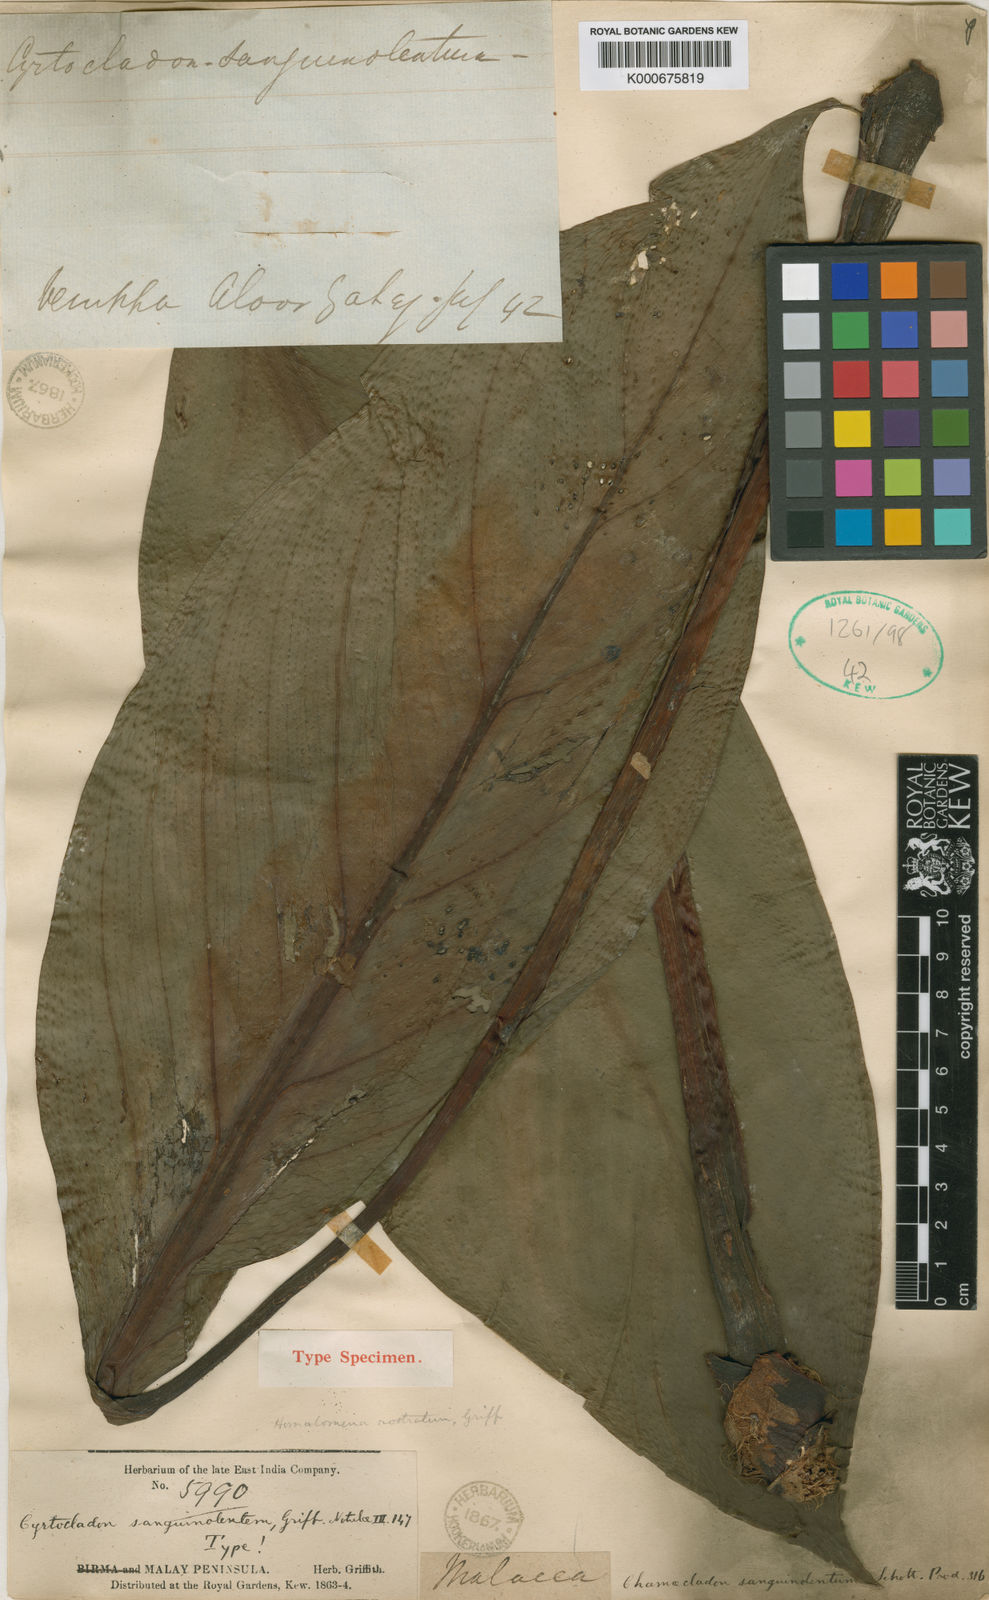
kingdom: Plantae
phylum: Tracheophyta
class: Liliopsida
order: Alismatales
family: Araceae
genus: Homalomena
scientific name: Homalomena rostrata
